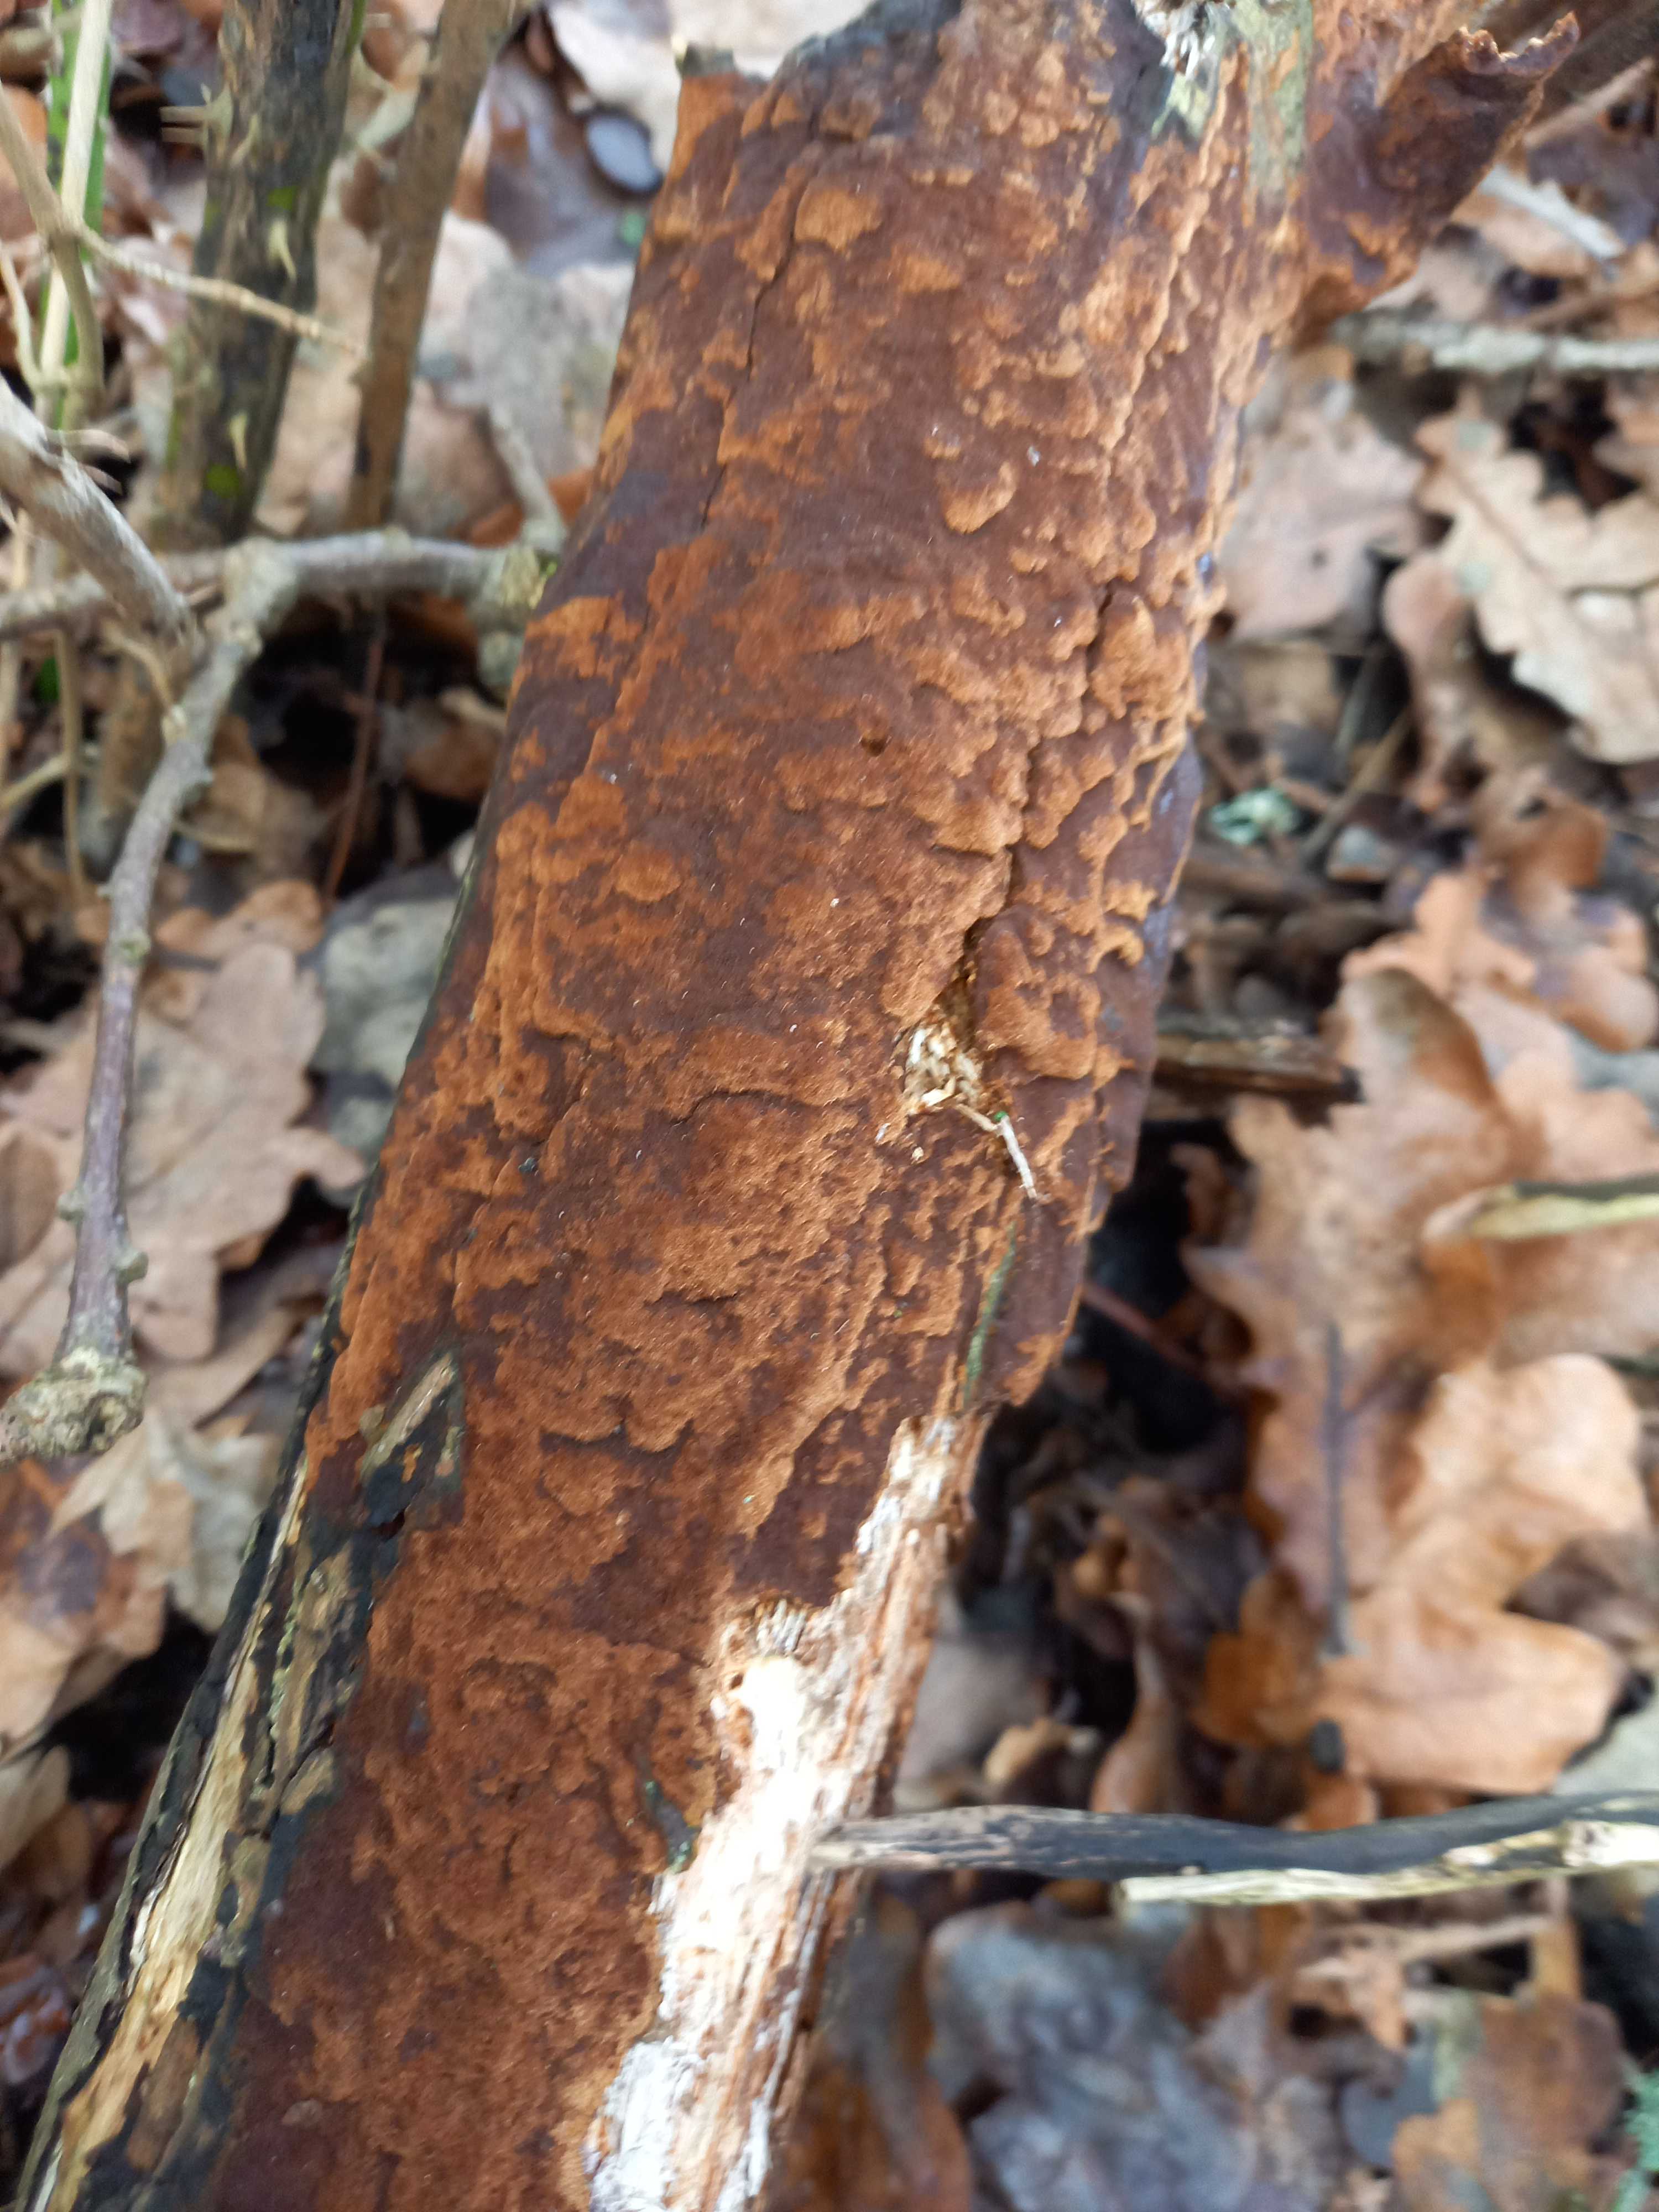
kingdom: Fungi
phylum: Basidiomycota
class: Agaricomycetes
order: Hymenochaetales
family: Hymenochaetaceae
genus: Fuscoporia
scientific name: Fuscoporia ferrea
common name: skorpe-ildporesvamp
